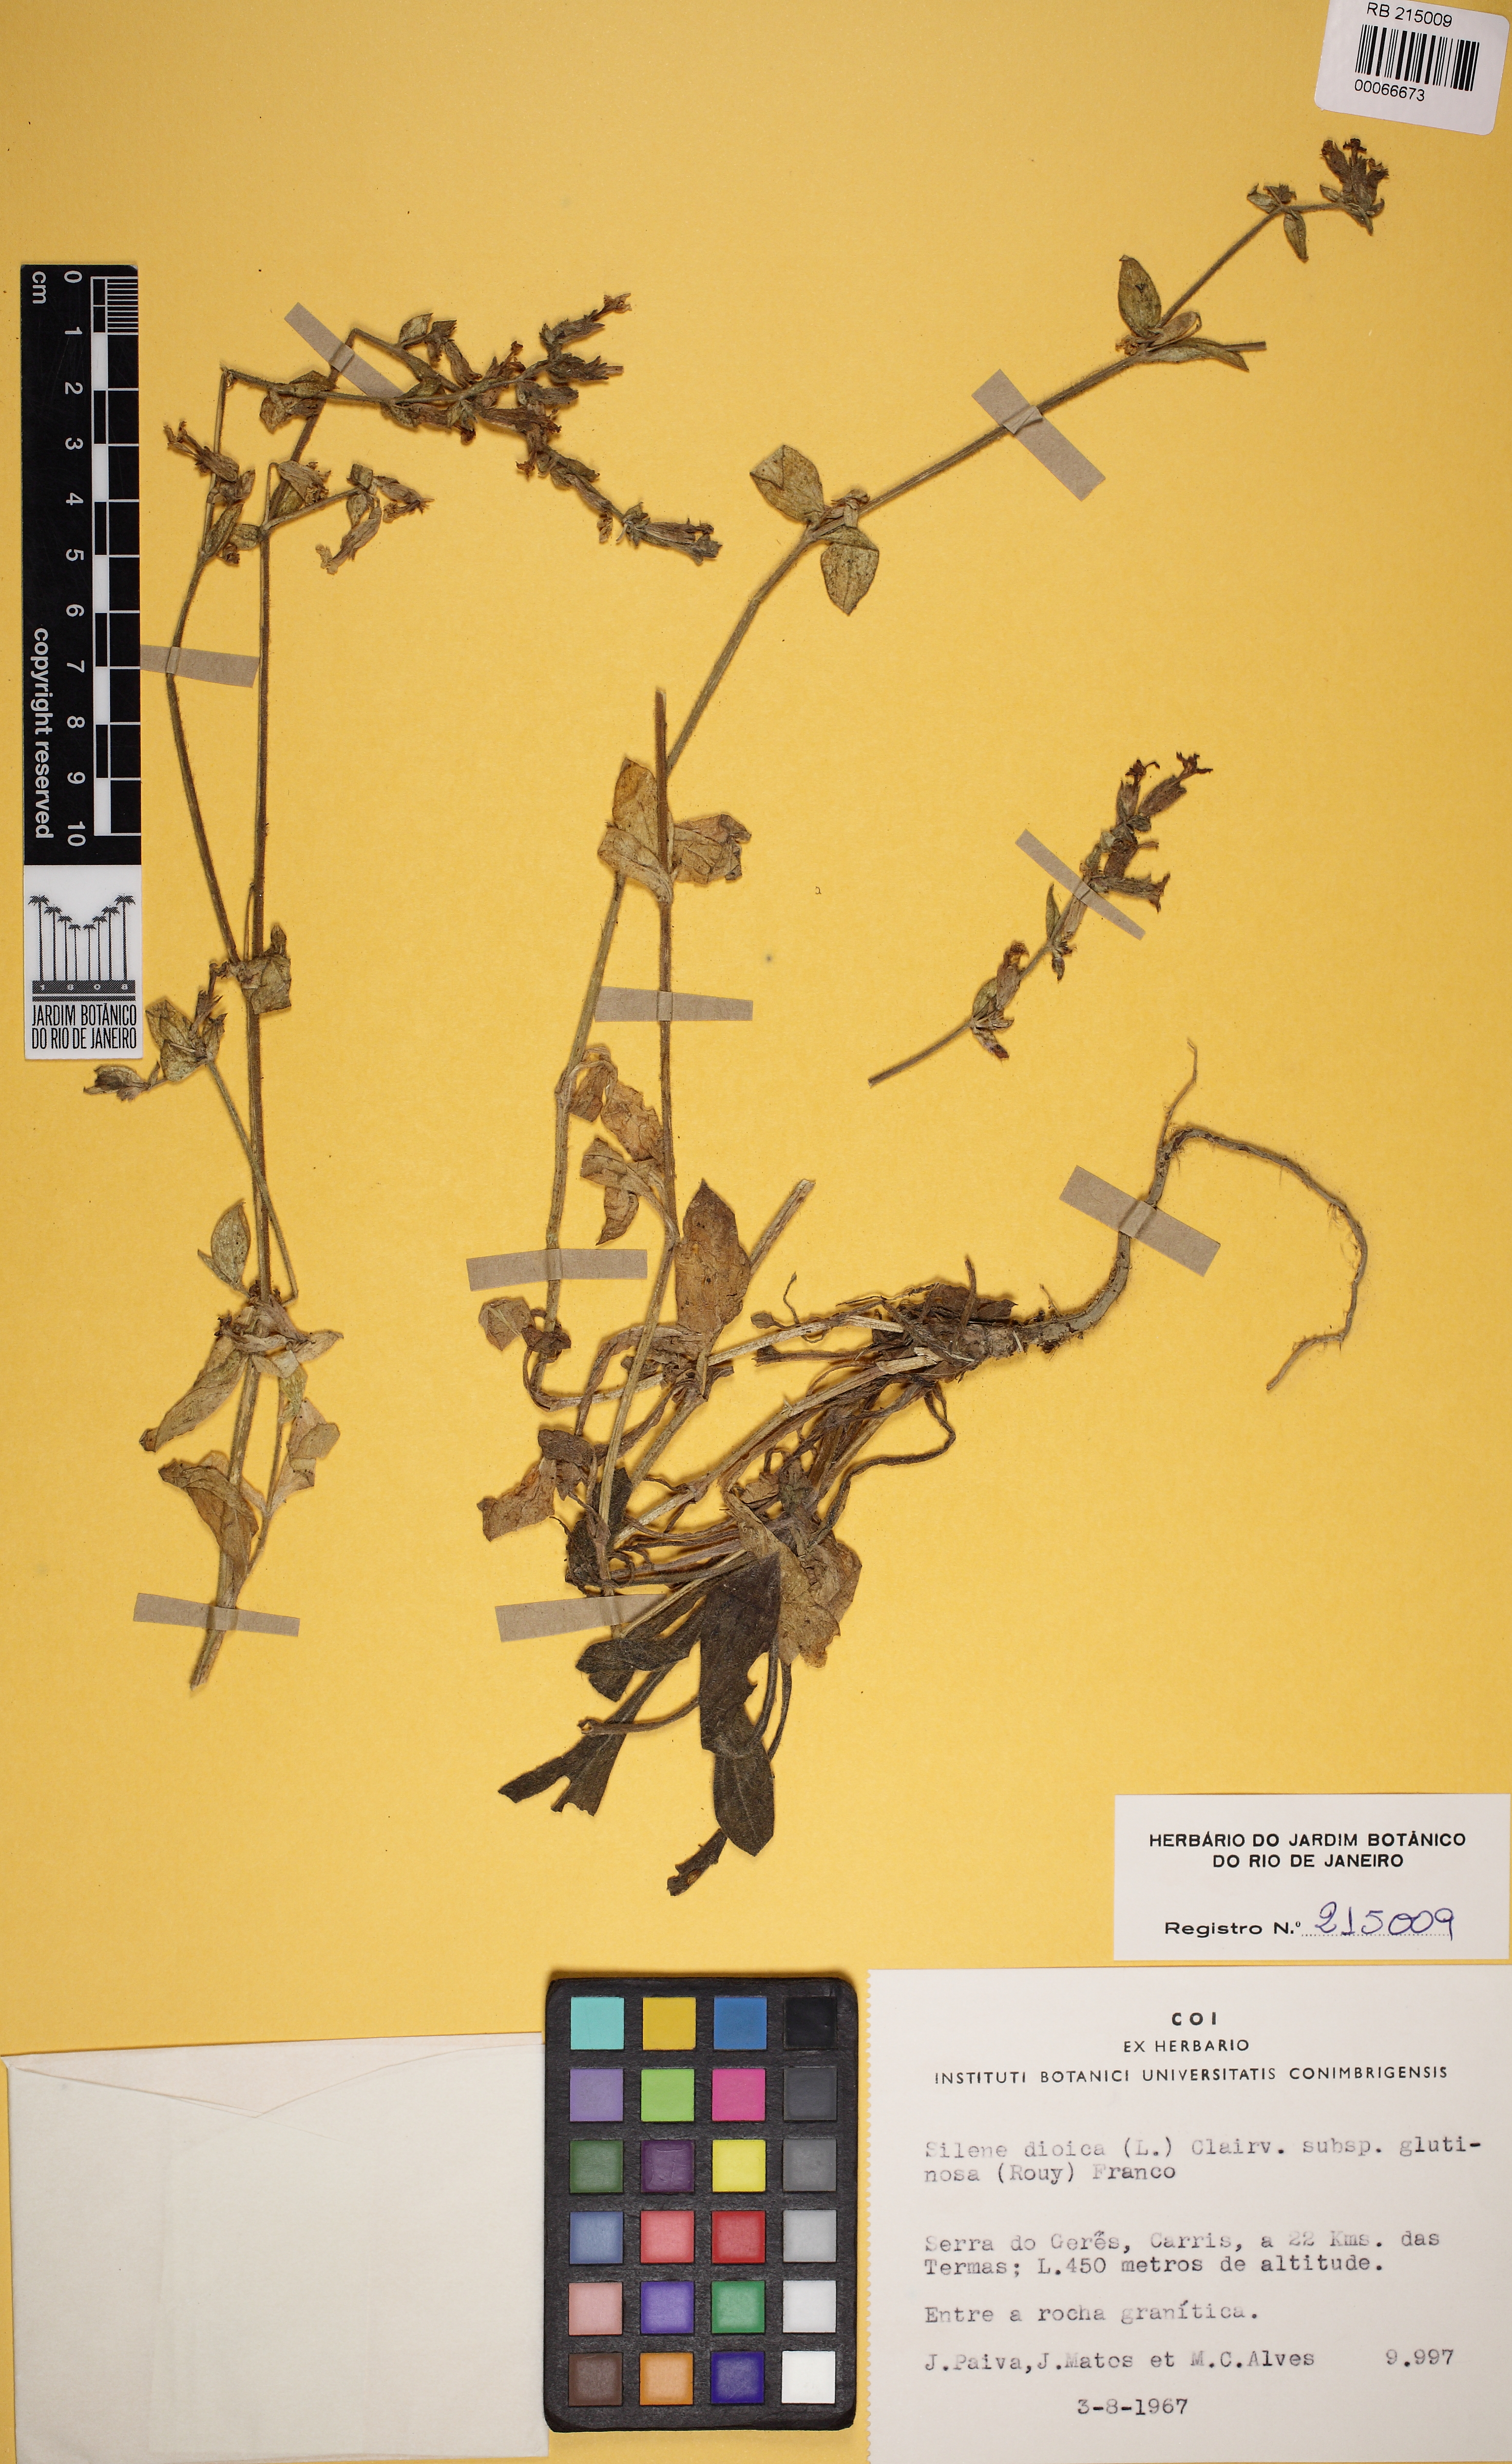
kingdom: Plantae
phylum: Tracheophyta
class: Magnoliopsida
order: Caryophyllales
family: Caryophyllaceae
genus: Silene
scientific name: Silene dioica
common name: Red campion
